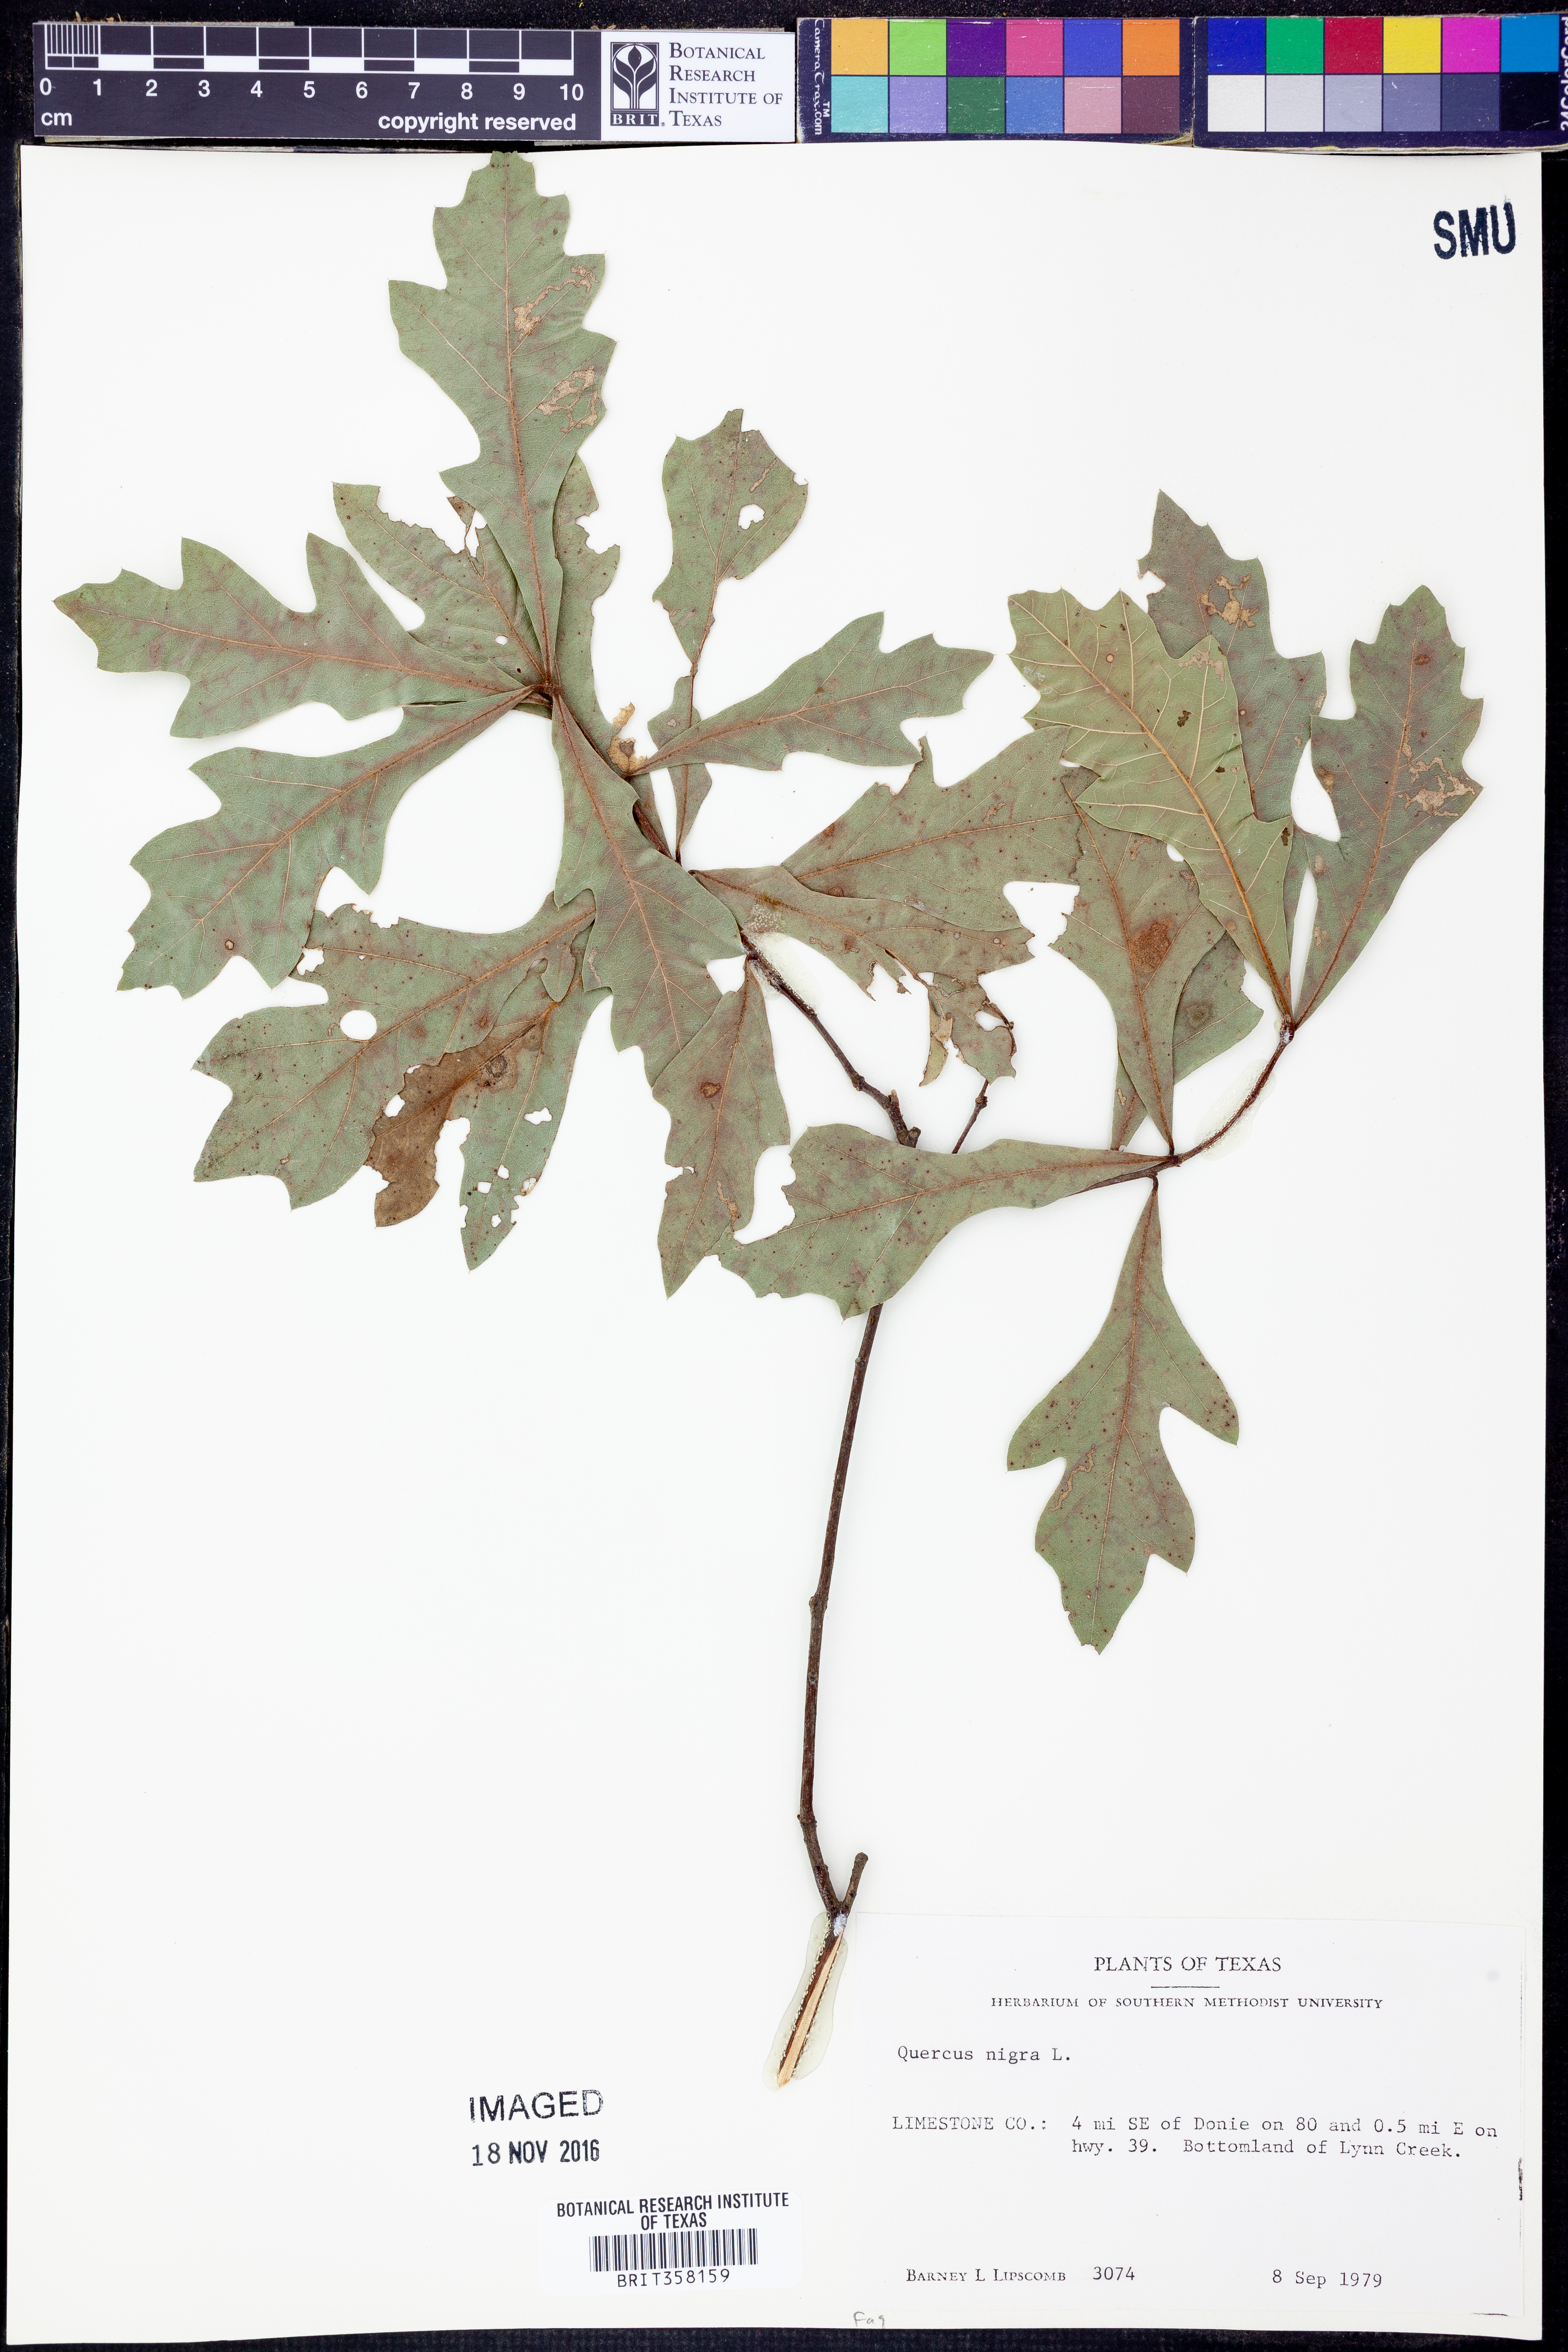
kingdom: Plantae
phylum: Tracheophyta
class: Magnoliopsida
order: Fagales
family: Fagaceae
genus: Quercus
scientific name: Quercus nigra
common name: Water oak
